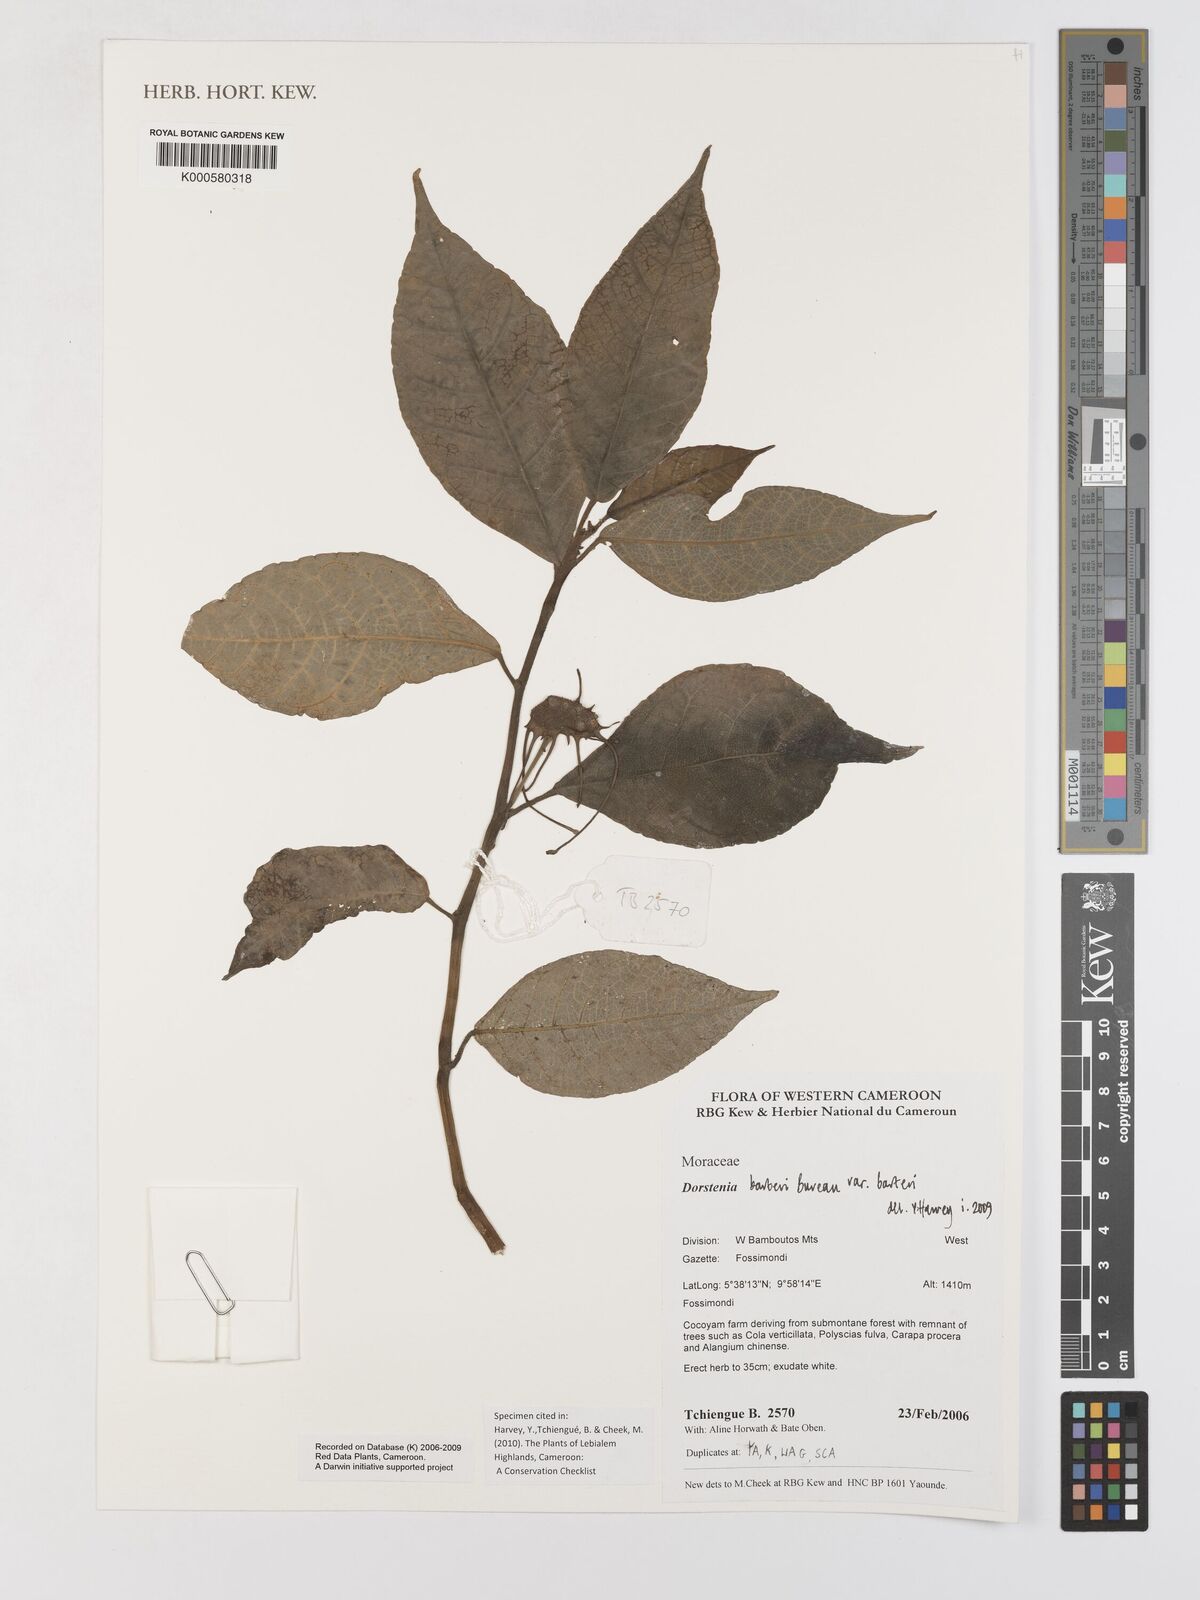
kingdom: Plantae
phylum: Tracheophyta
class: Magnoliopsida
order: Rosales
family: Moraceae
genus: Dorstenia
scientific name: Dorstenia barteri
